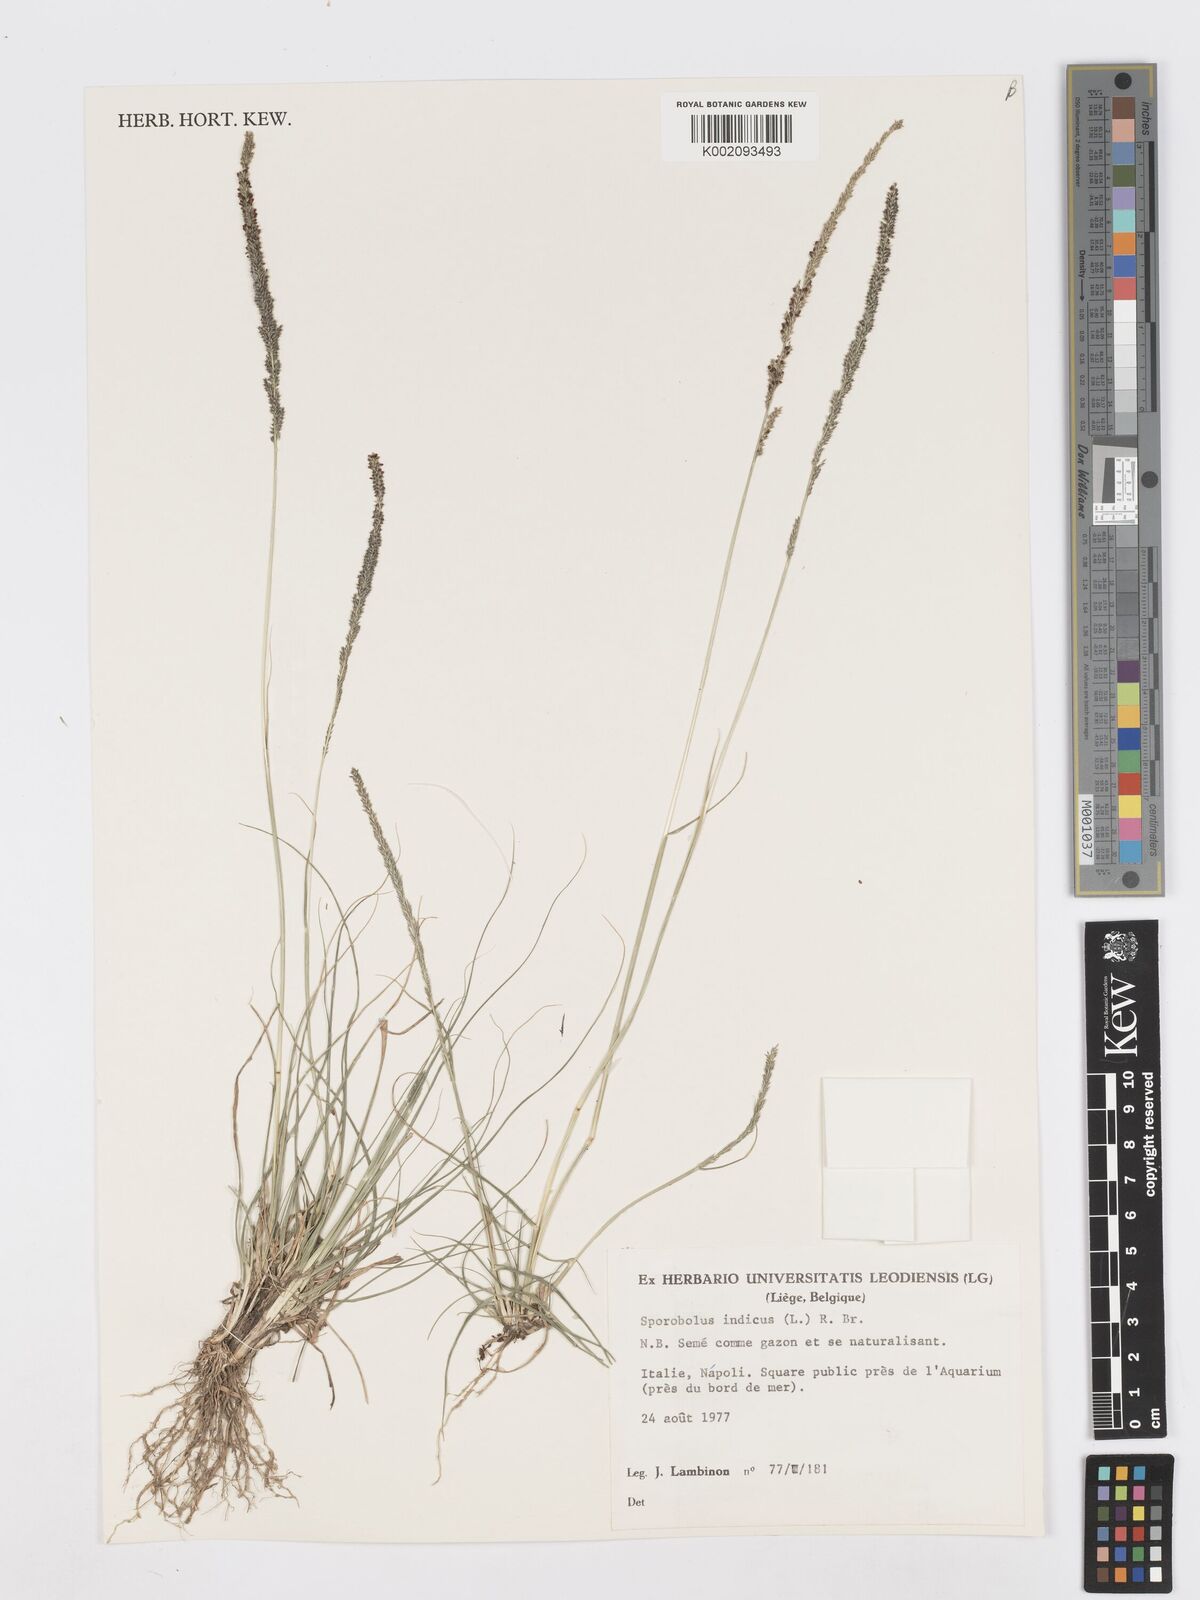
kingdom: Plantae
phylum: Tracheophyta
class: Liliopsida
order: Poales
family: Poaceae
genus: Sporobolus
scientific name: Sporobolus indicus
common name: Smut grass
